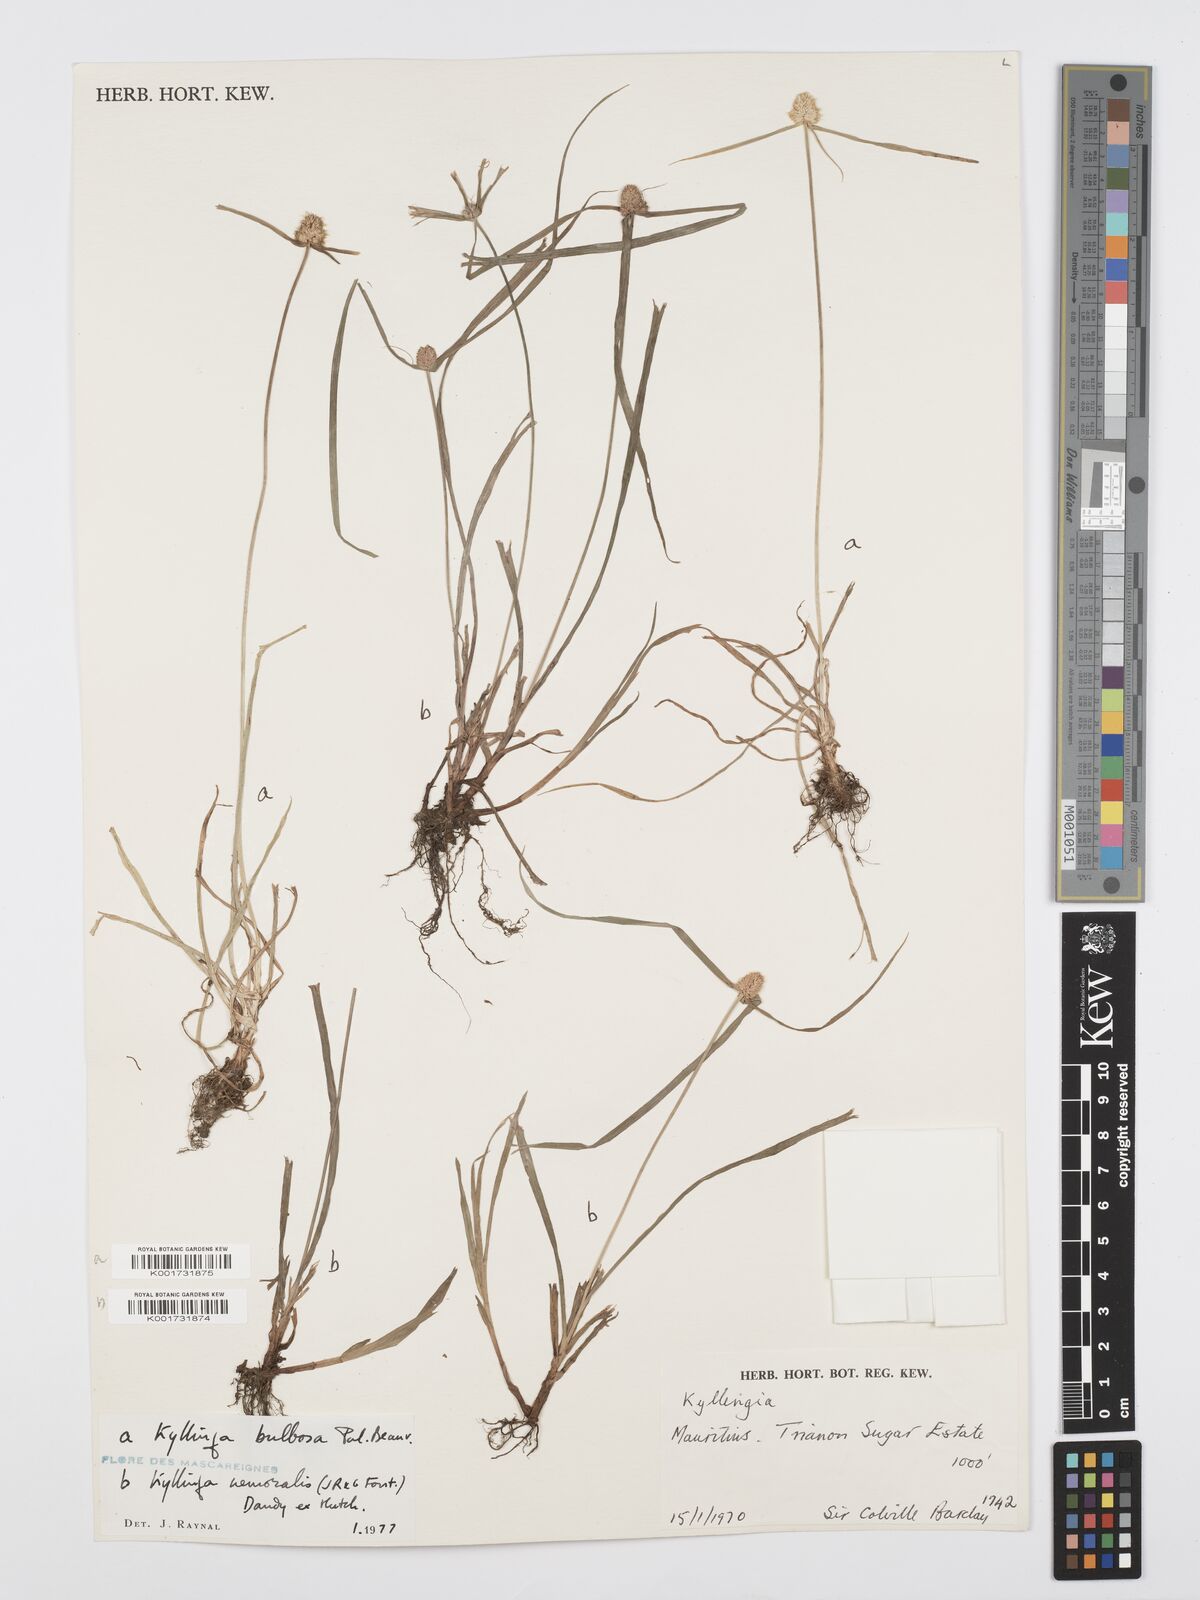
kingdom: Plantae
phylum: Tracheophyta
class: Liliopsida
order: Poales
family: Cyperaceae
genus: Cyperus
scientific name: Cyperus conglobatus
